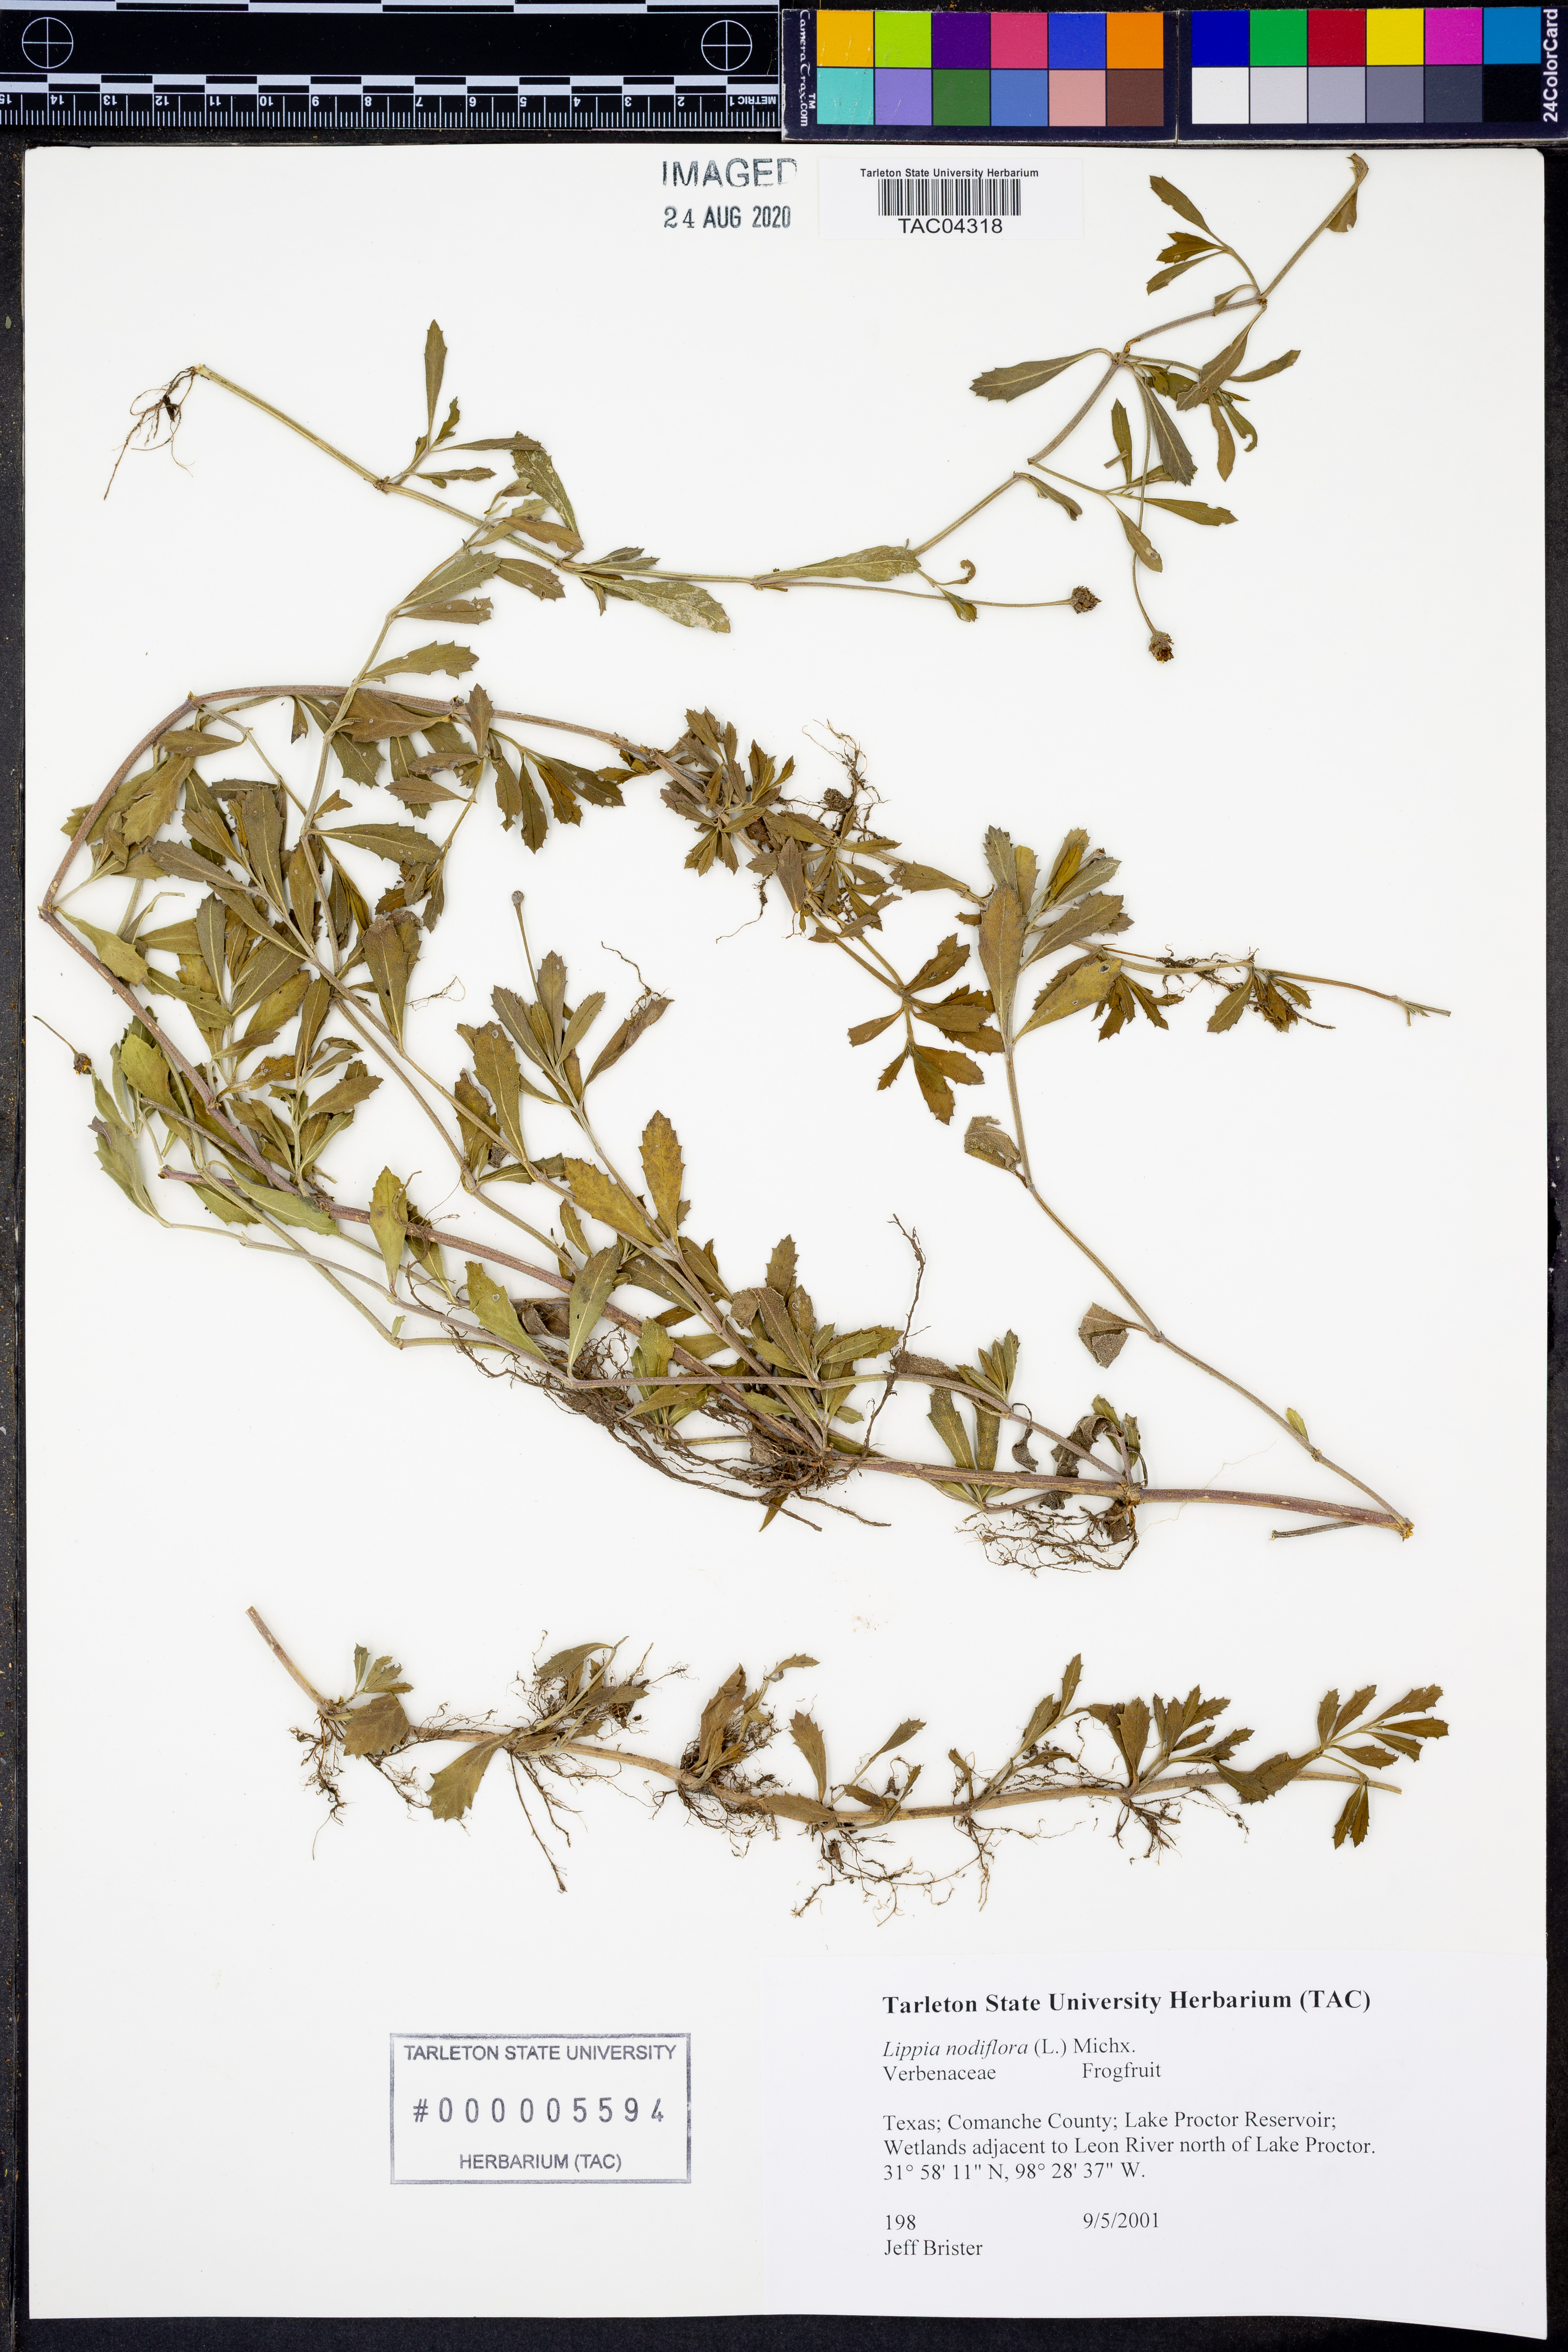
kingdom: Plantae
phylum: Tracheophyta
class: Magnoliopsida
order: Lamiales
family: Verbenaceae
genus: Phyla
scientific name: Phyla nodiflora
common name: Frogfruit
